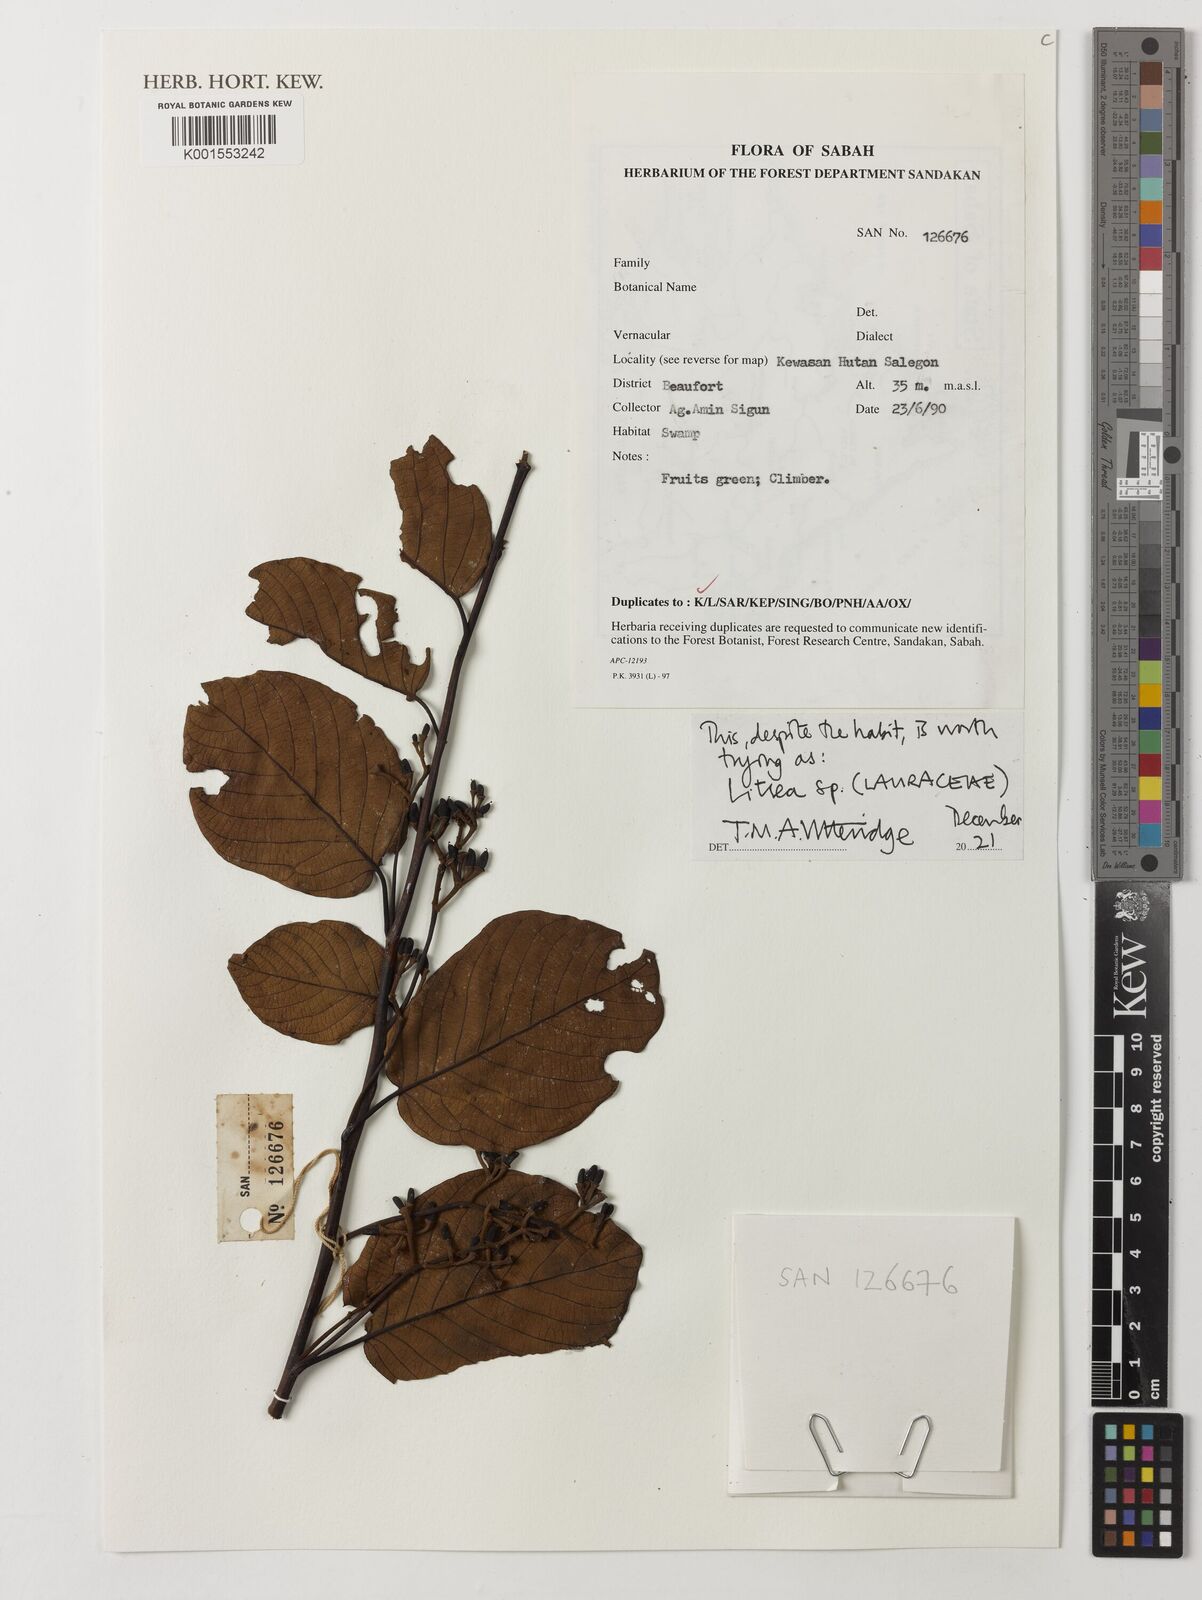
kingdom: Plantae
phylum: Tracheophyta
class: Magnoliopsida
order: Laurales
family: Lauraceae
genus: Litsea
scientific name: Litsea
